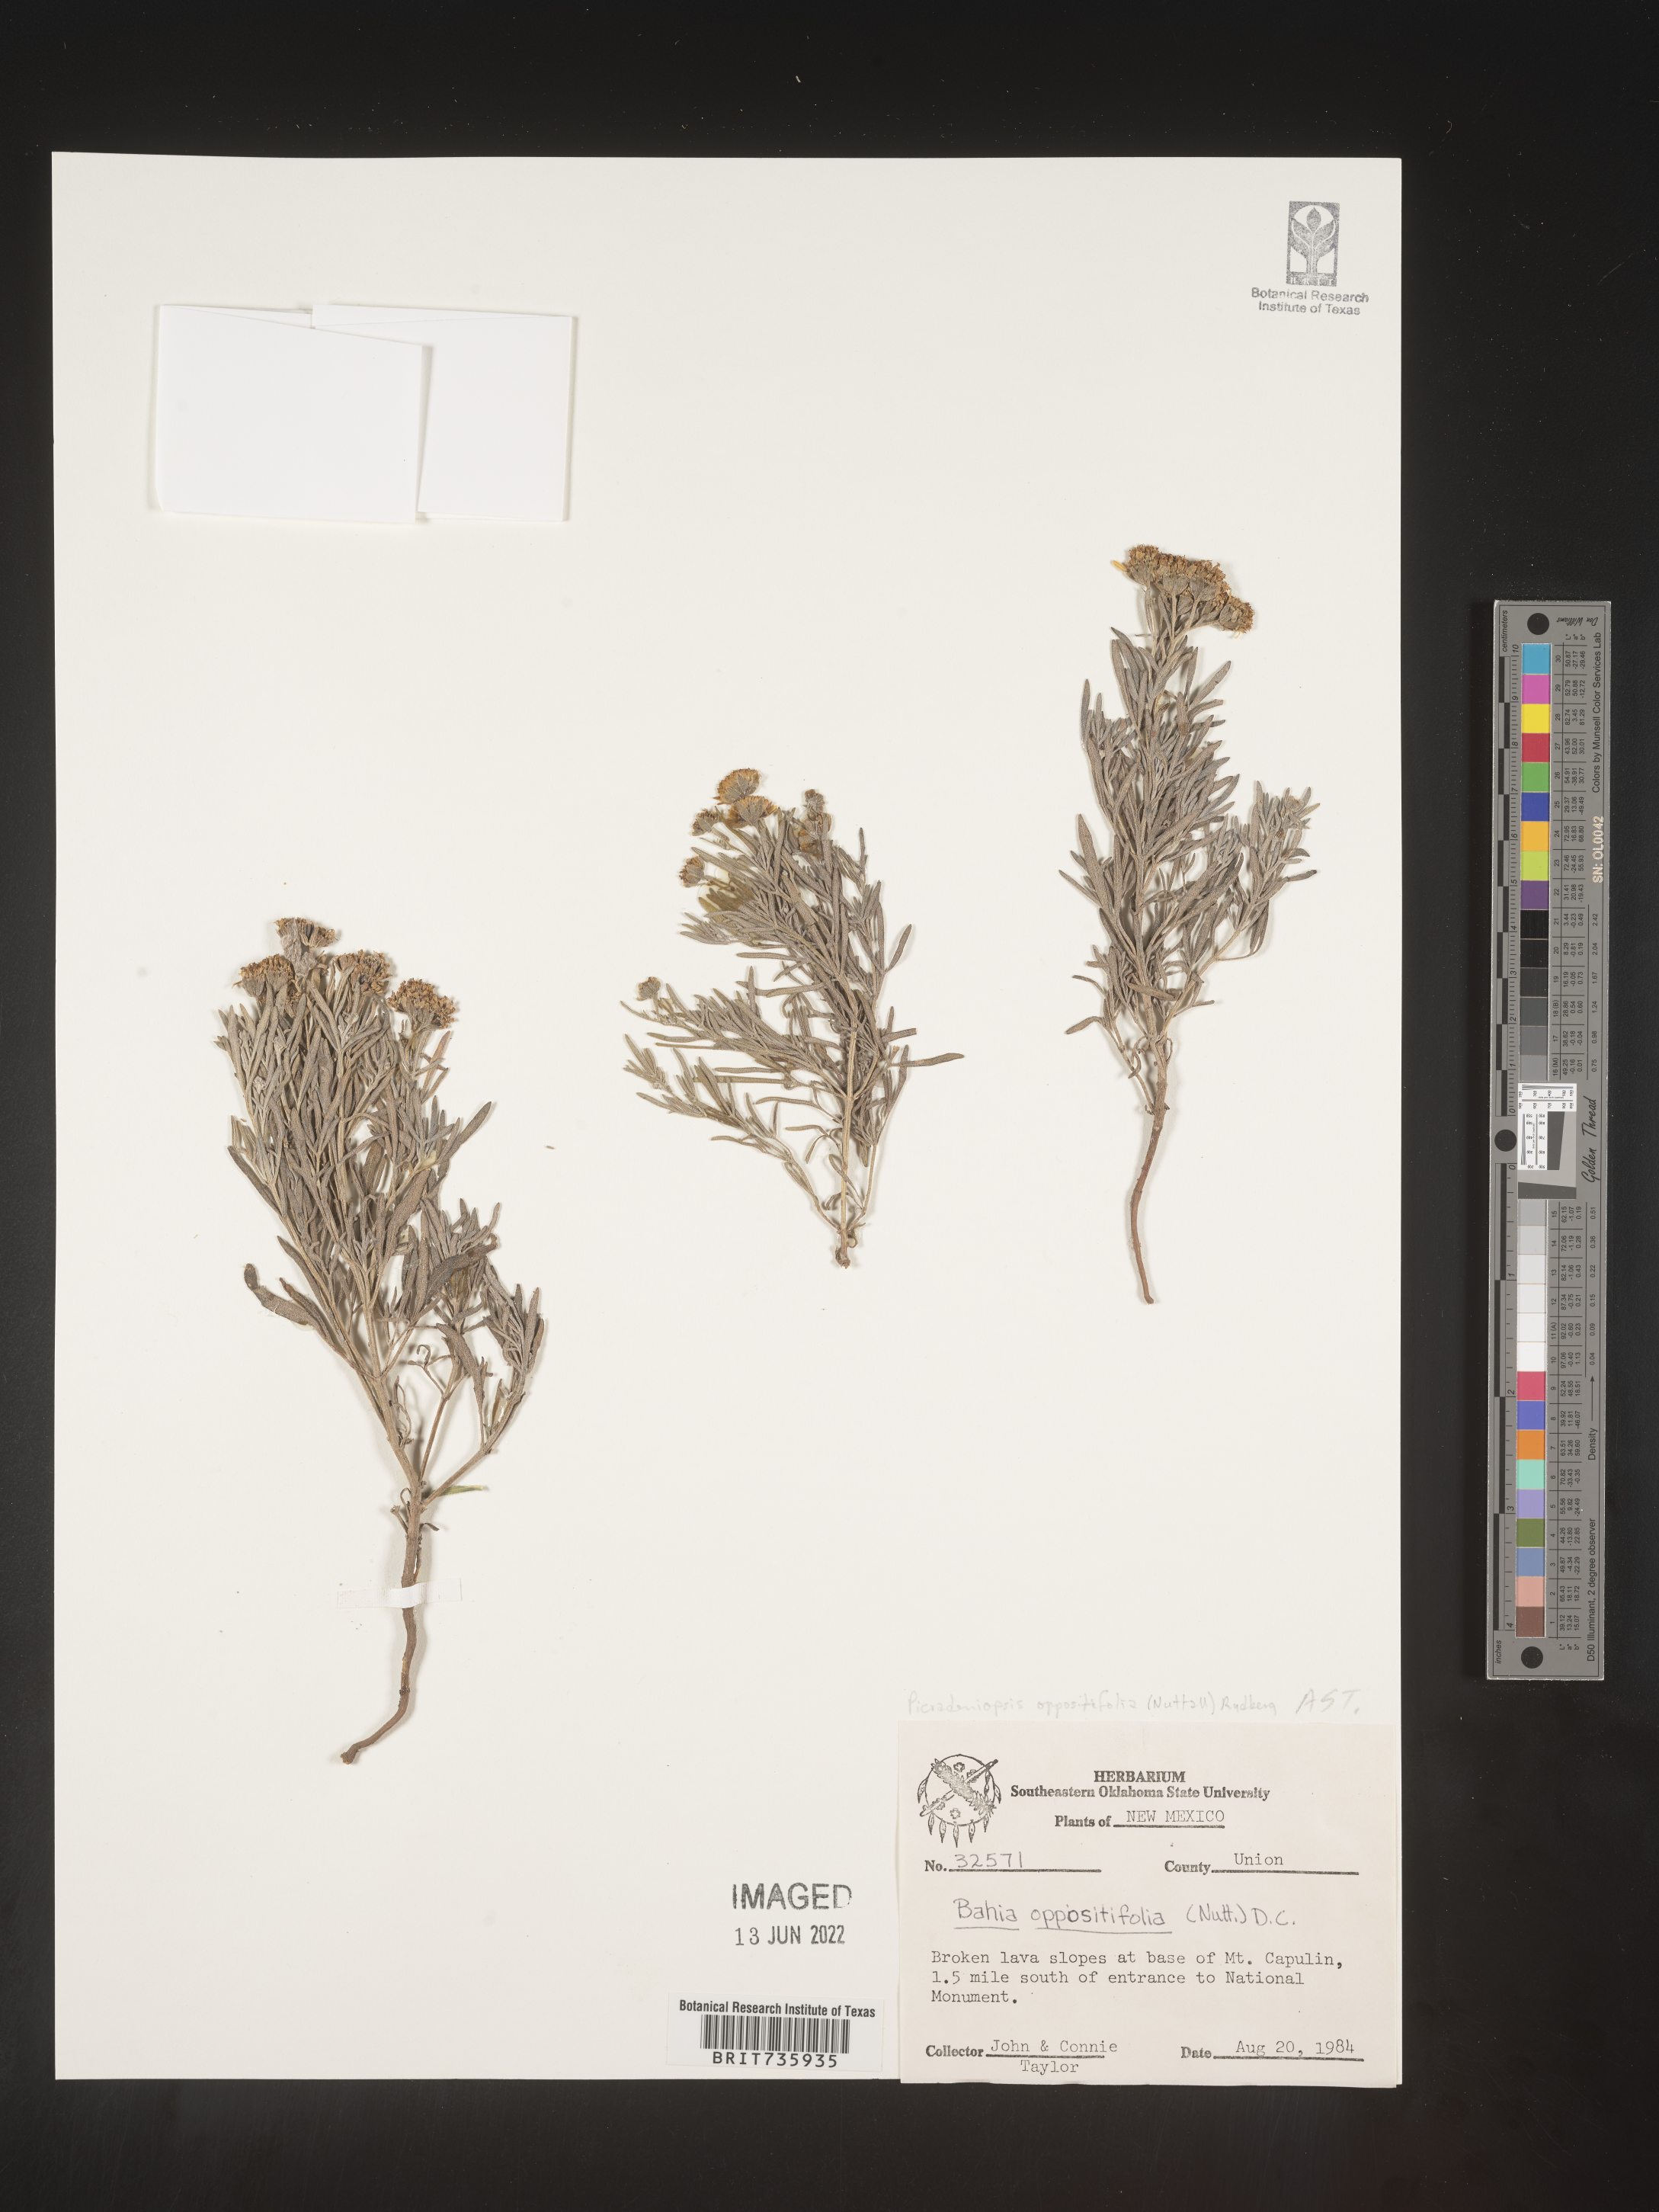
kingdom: Plantae
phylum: Tracheophyta
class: Magnoliopsida
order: Asterales
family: Asteraceae
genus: Bahia
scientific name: Bahia oppositifolia
